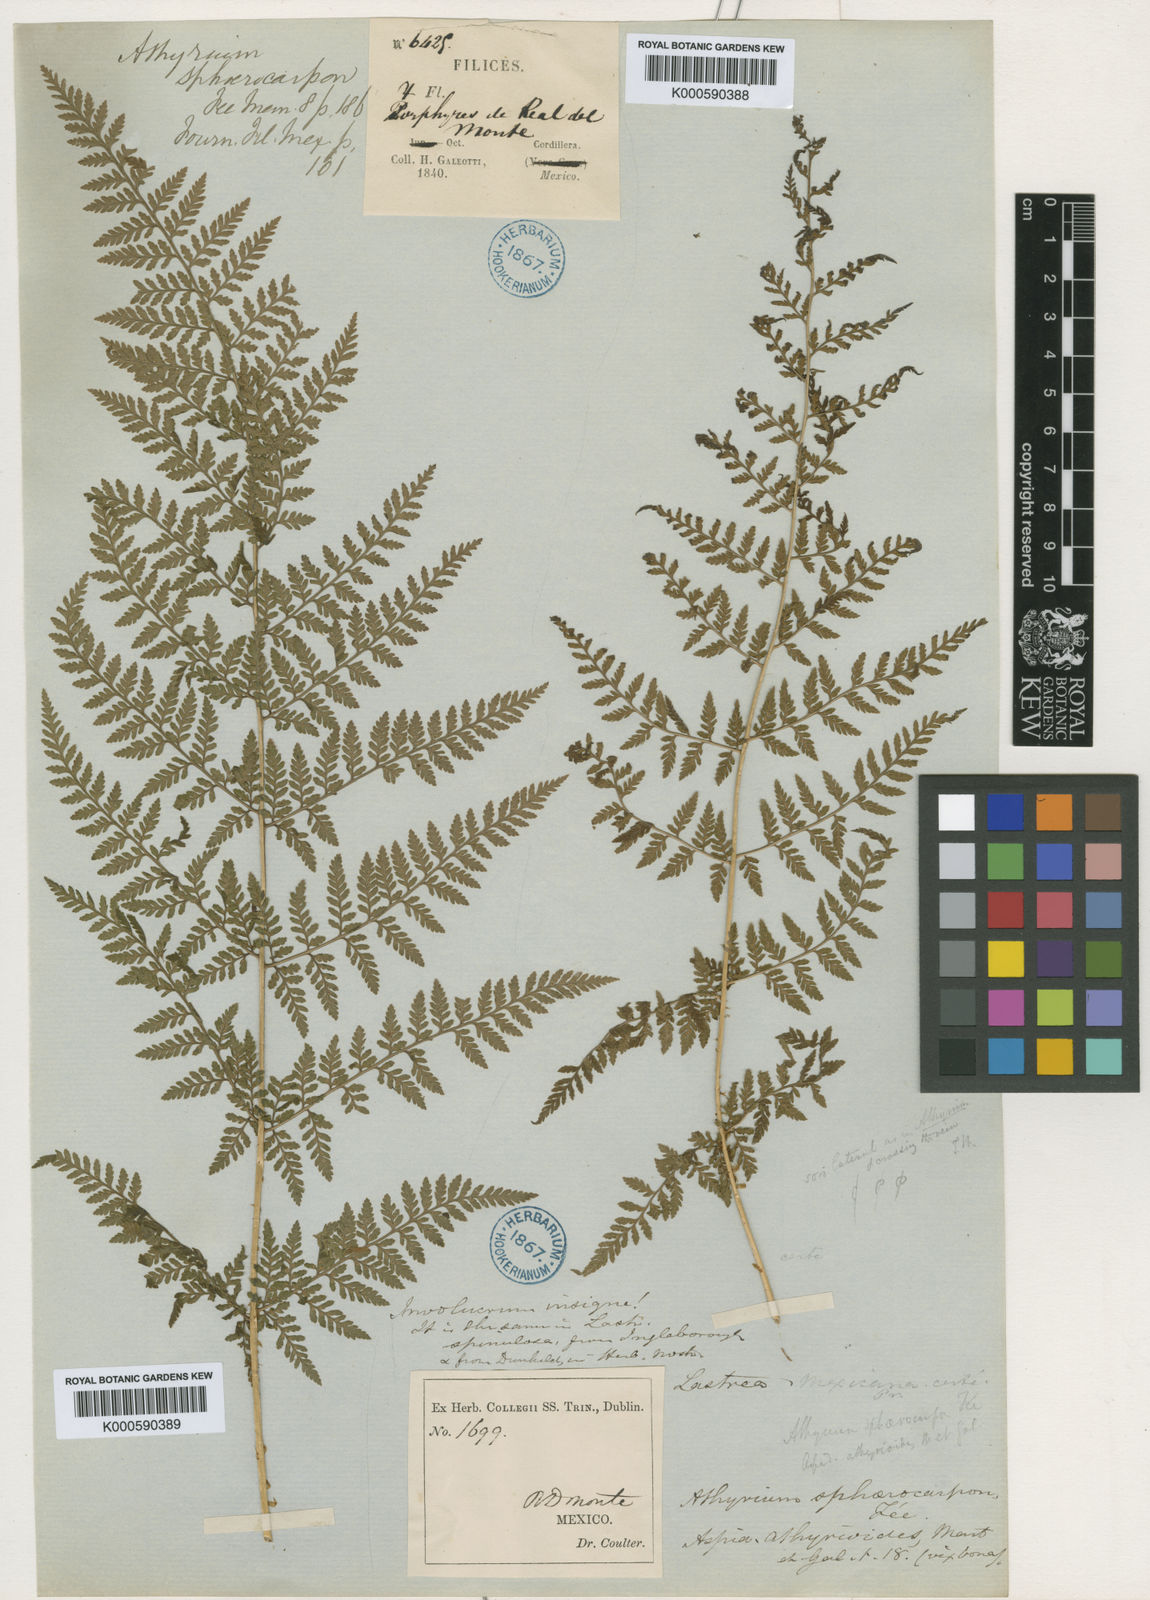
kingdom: Plantae
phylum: Tracheophyta
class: Polypodiopsida
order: Polypodiales
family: Dryopteridaceae
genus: Dryopteris
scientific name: Dryopteris
